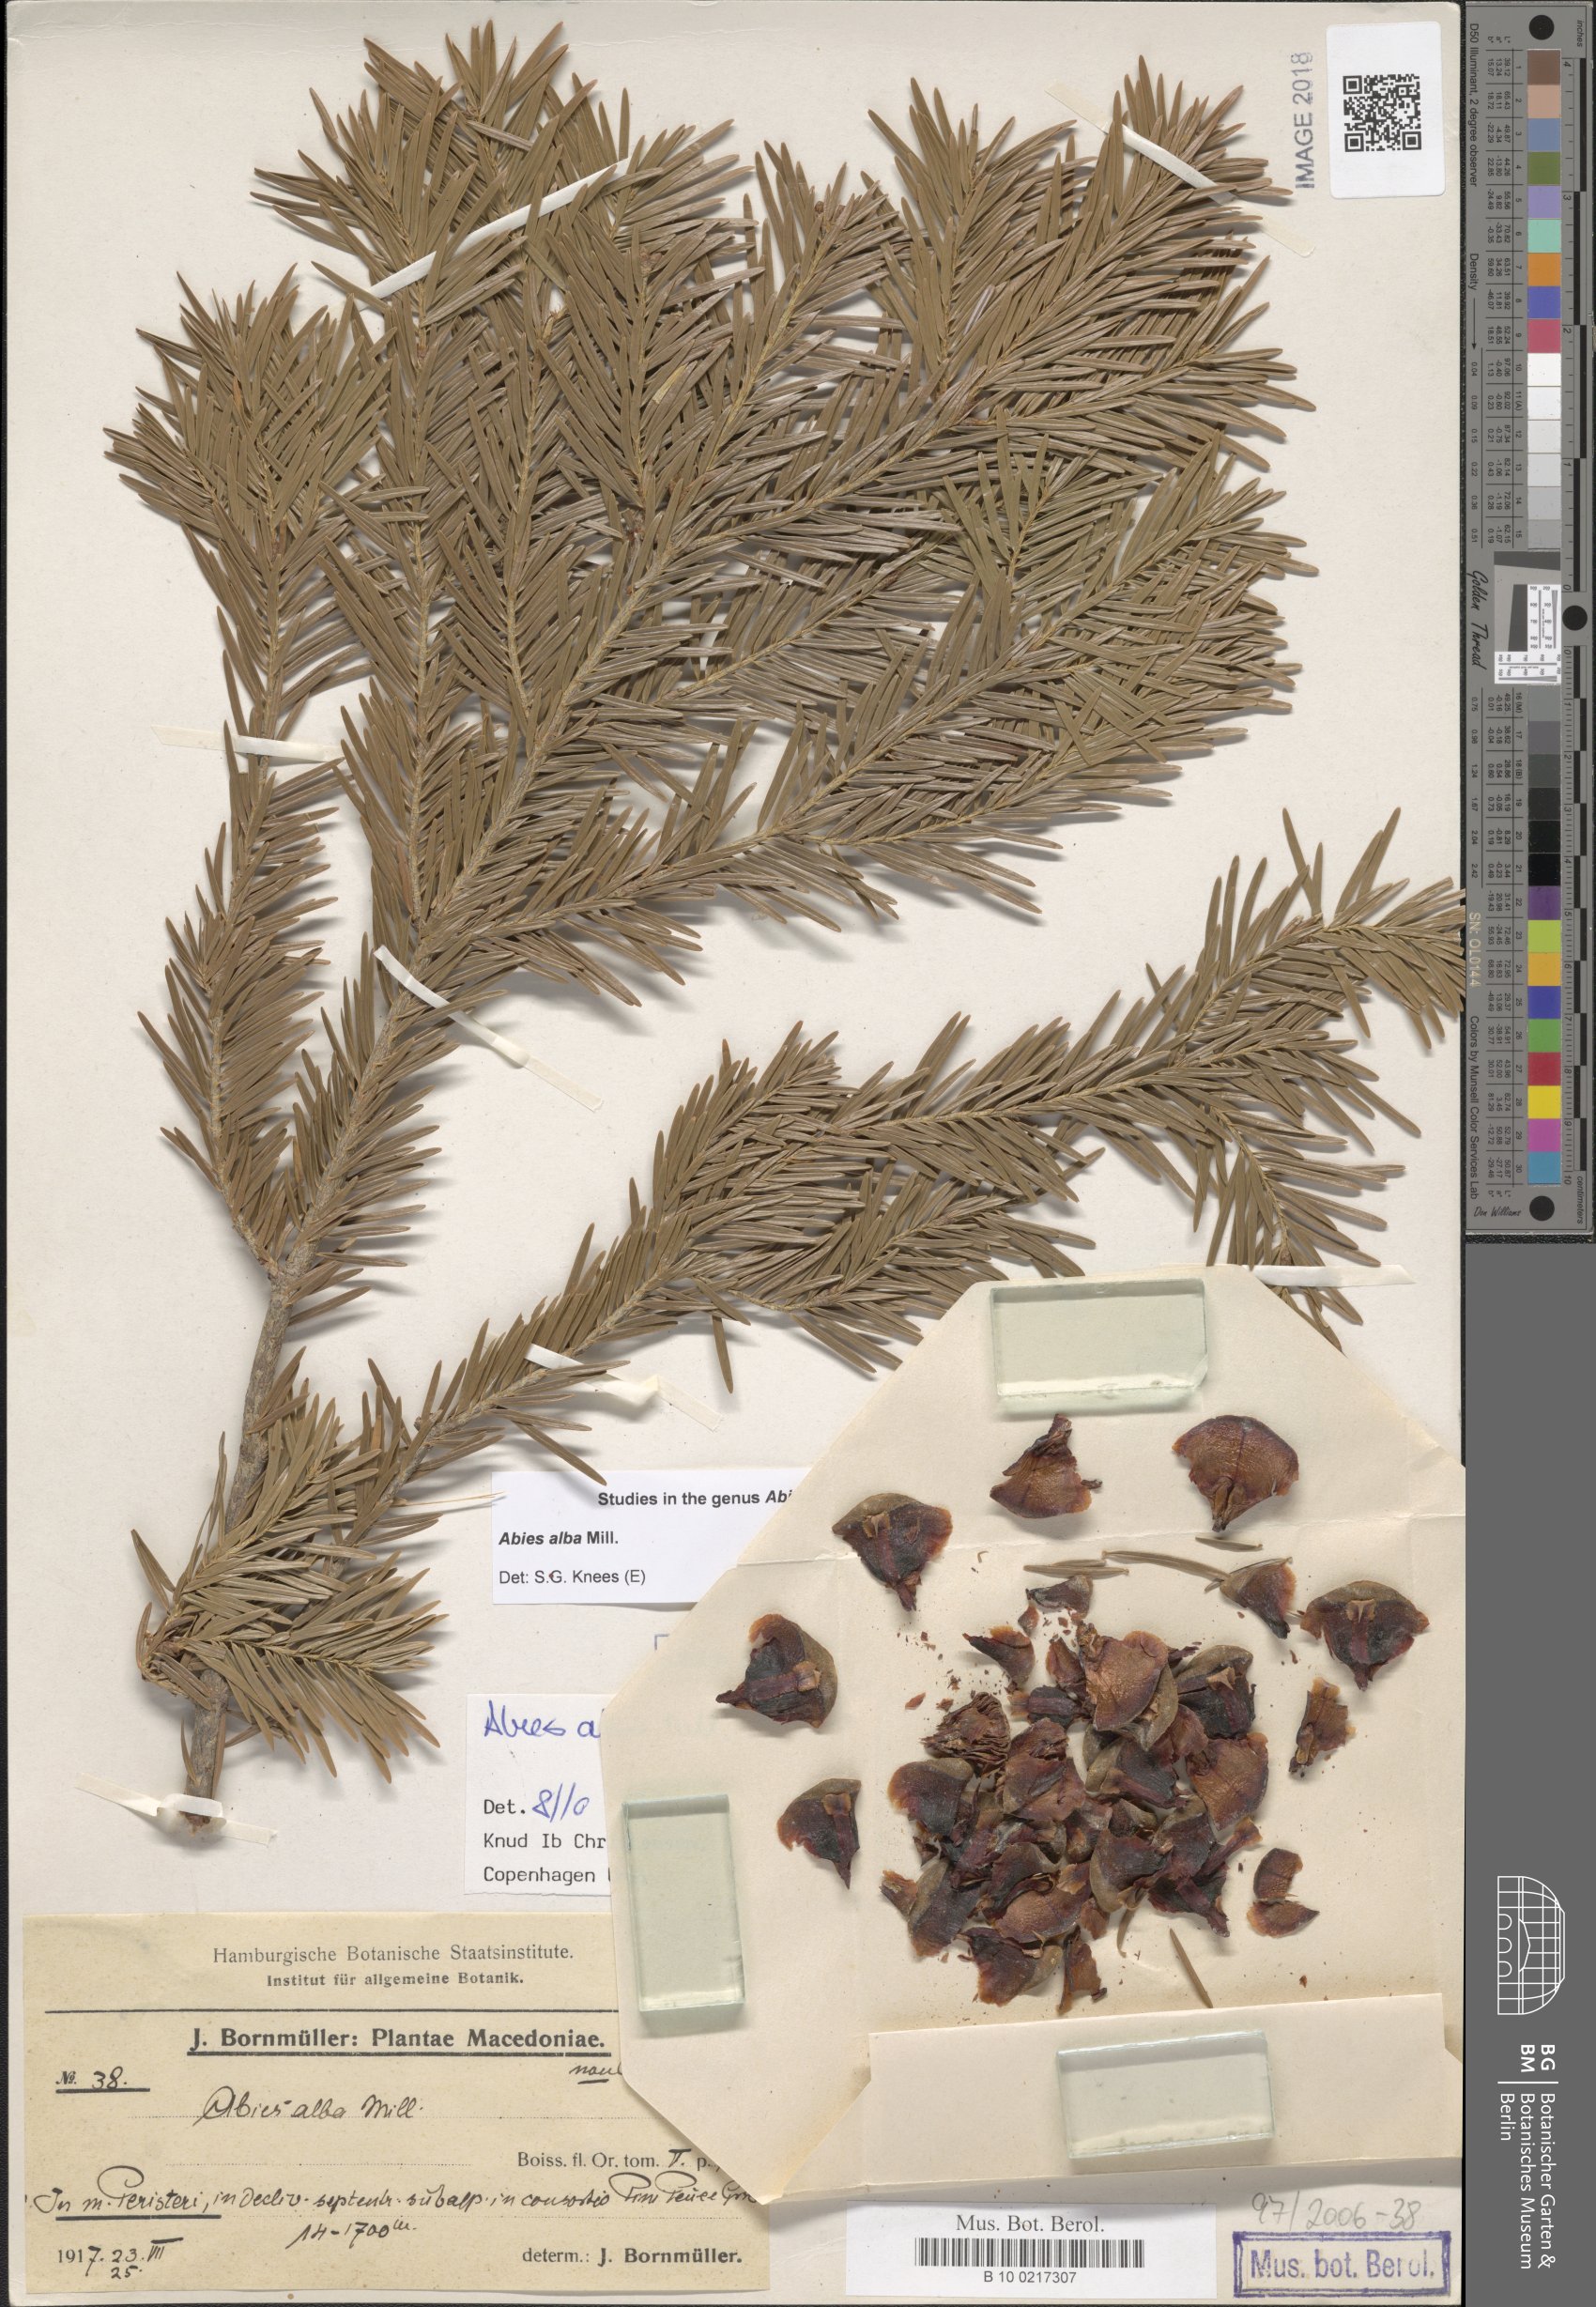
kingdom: Plantae
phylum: Tracheophyta
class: Pinopsida
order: Pinales
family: Pinaceae
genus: Abies
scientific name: Abies alba
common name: Silver fir
